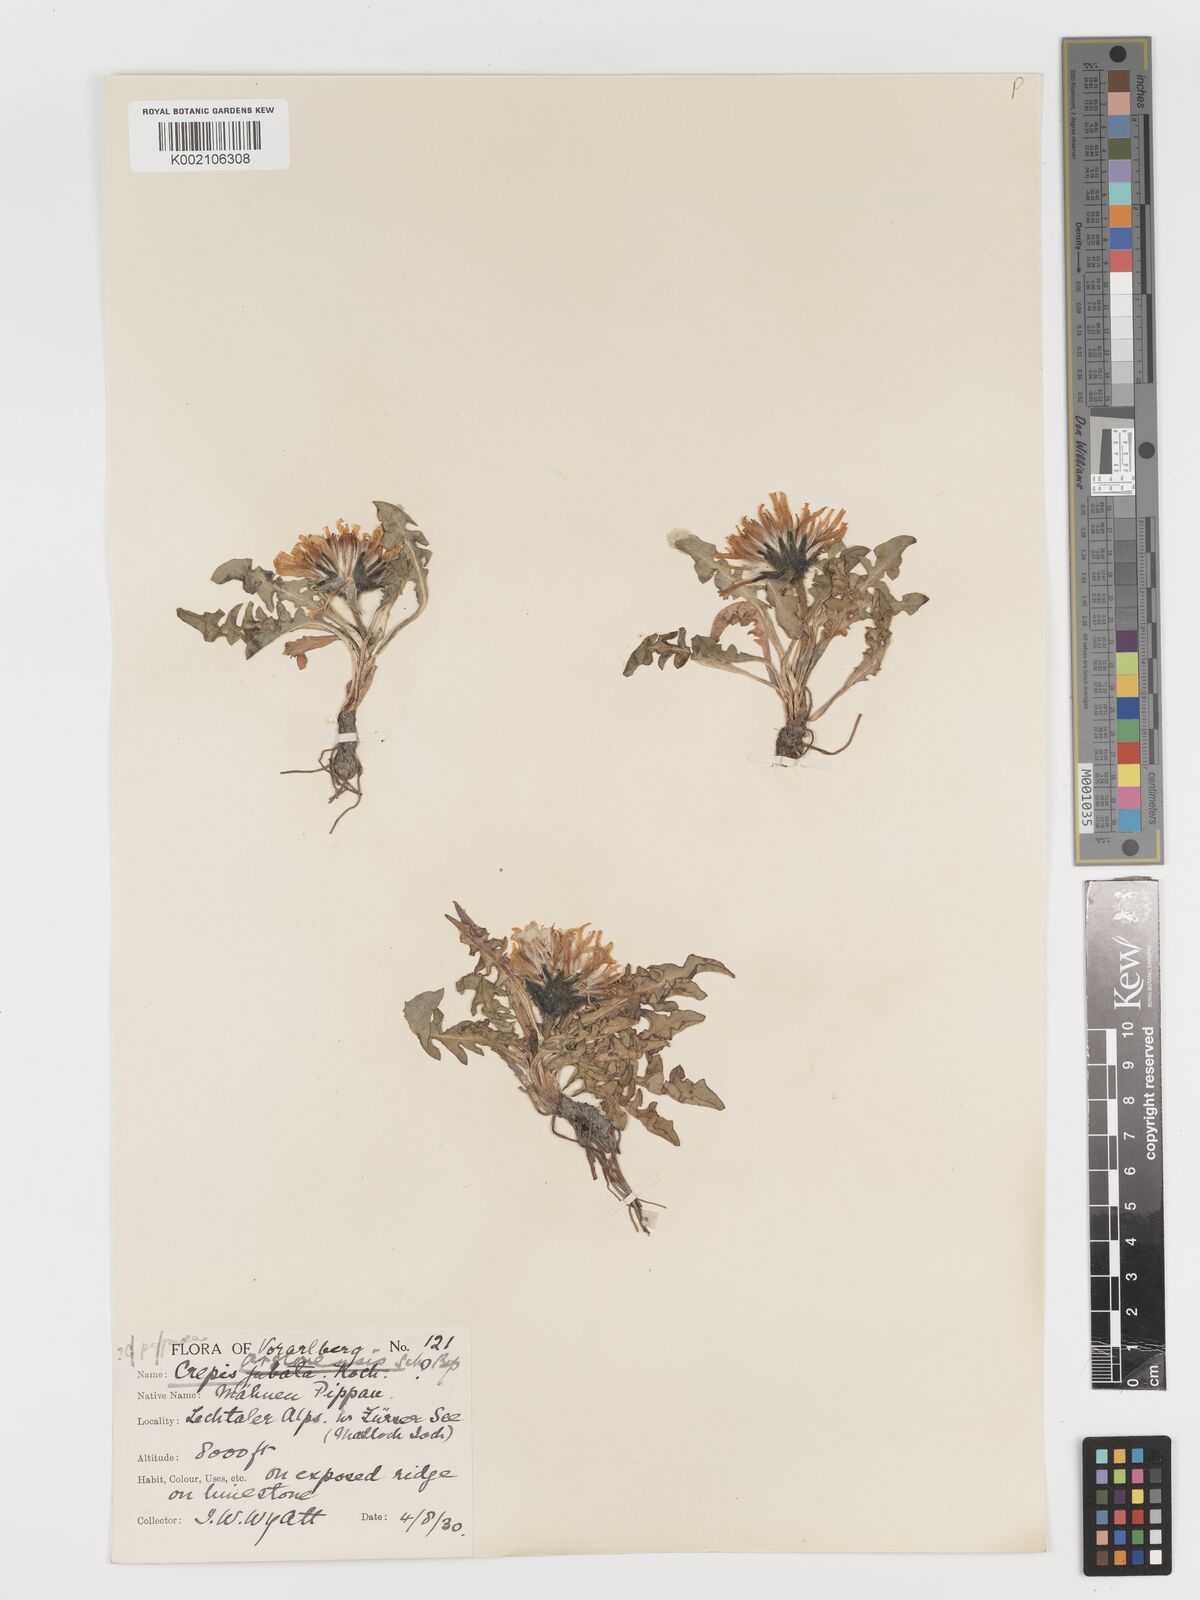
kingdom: Plantae
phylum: Tracheophyta
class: Magnoliopsida
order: Asterales
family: Asteraceae
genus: Crepis
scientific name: Crepis terglouensis
